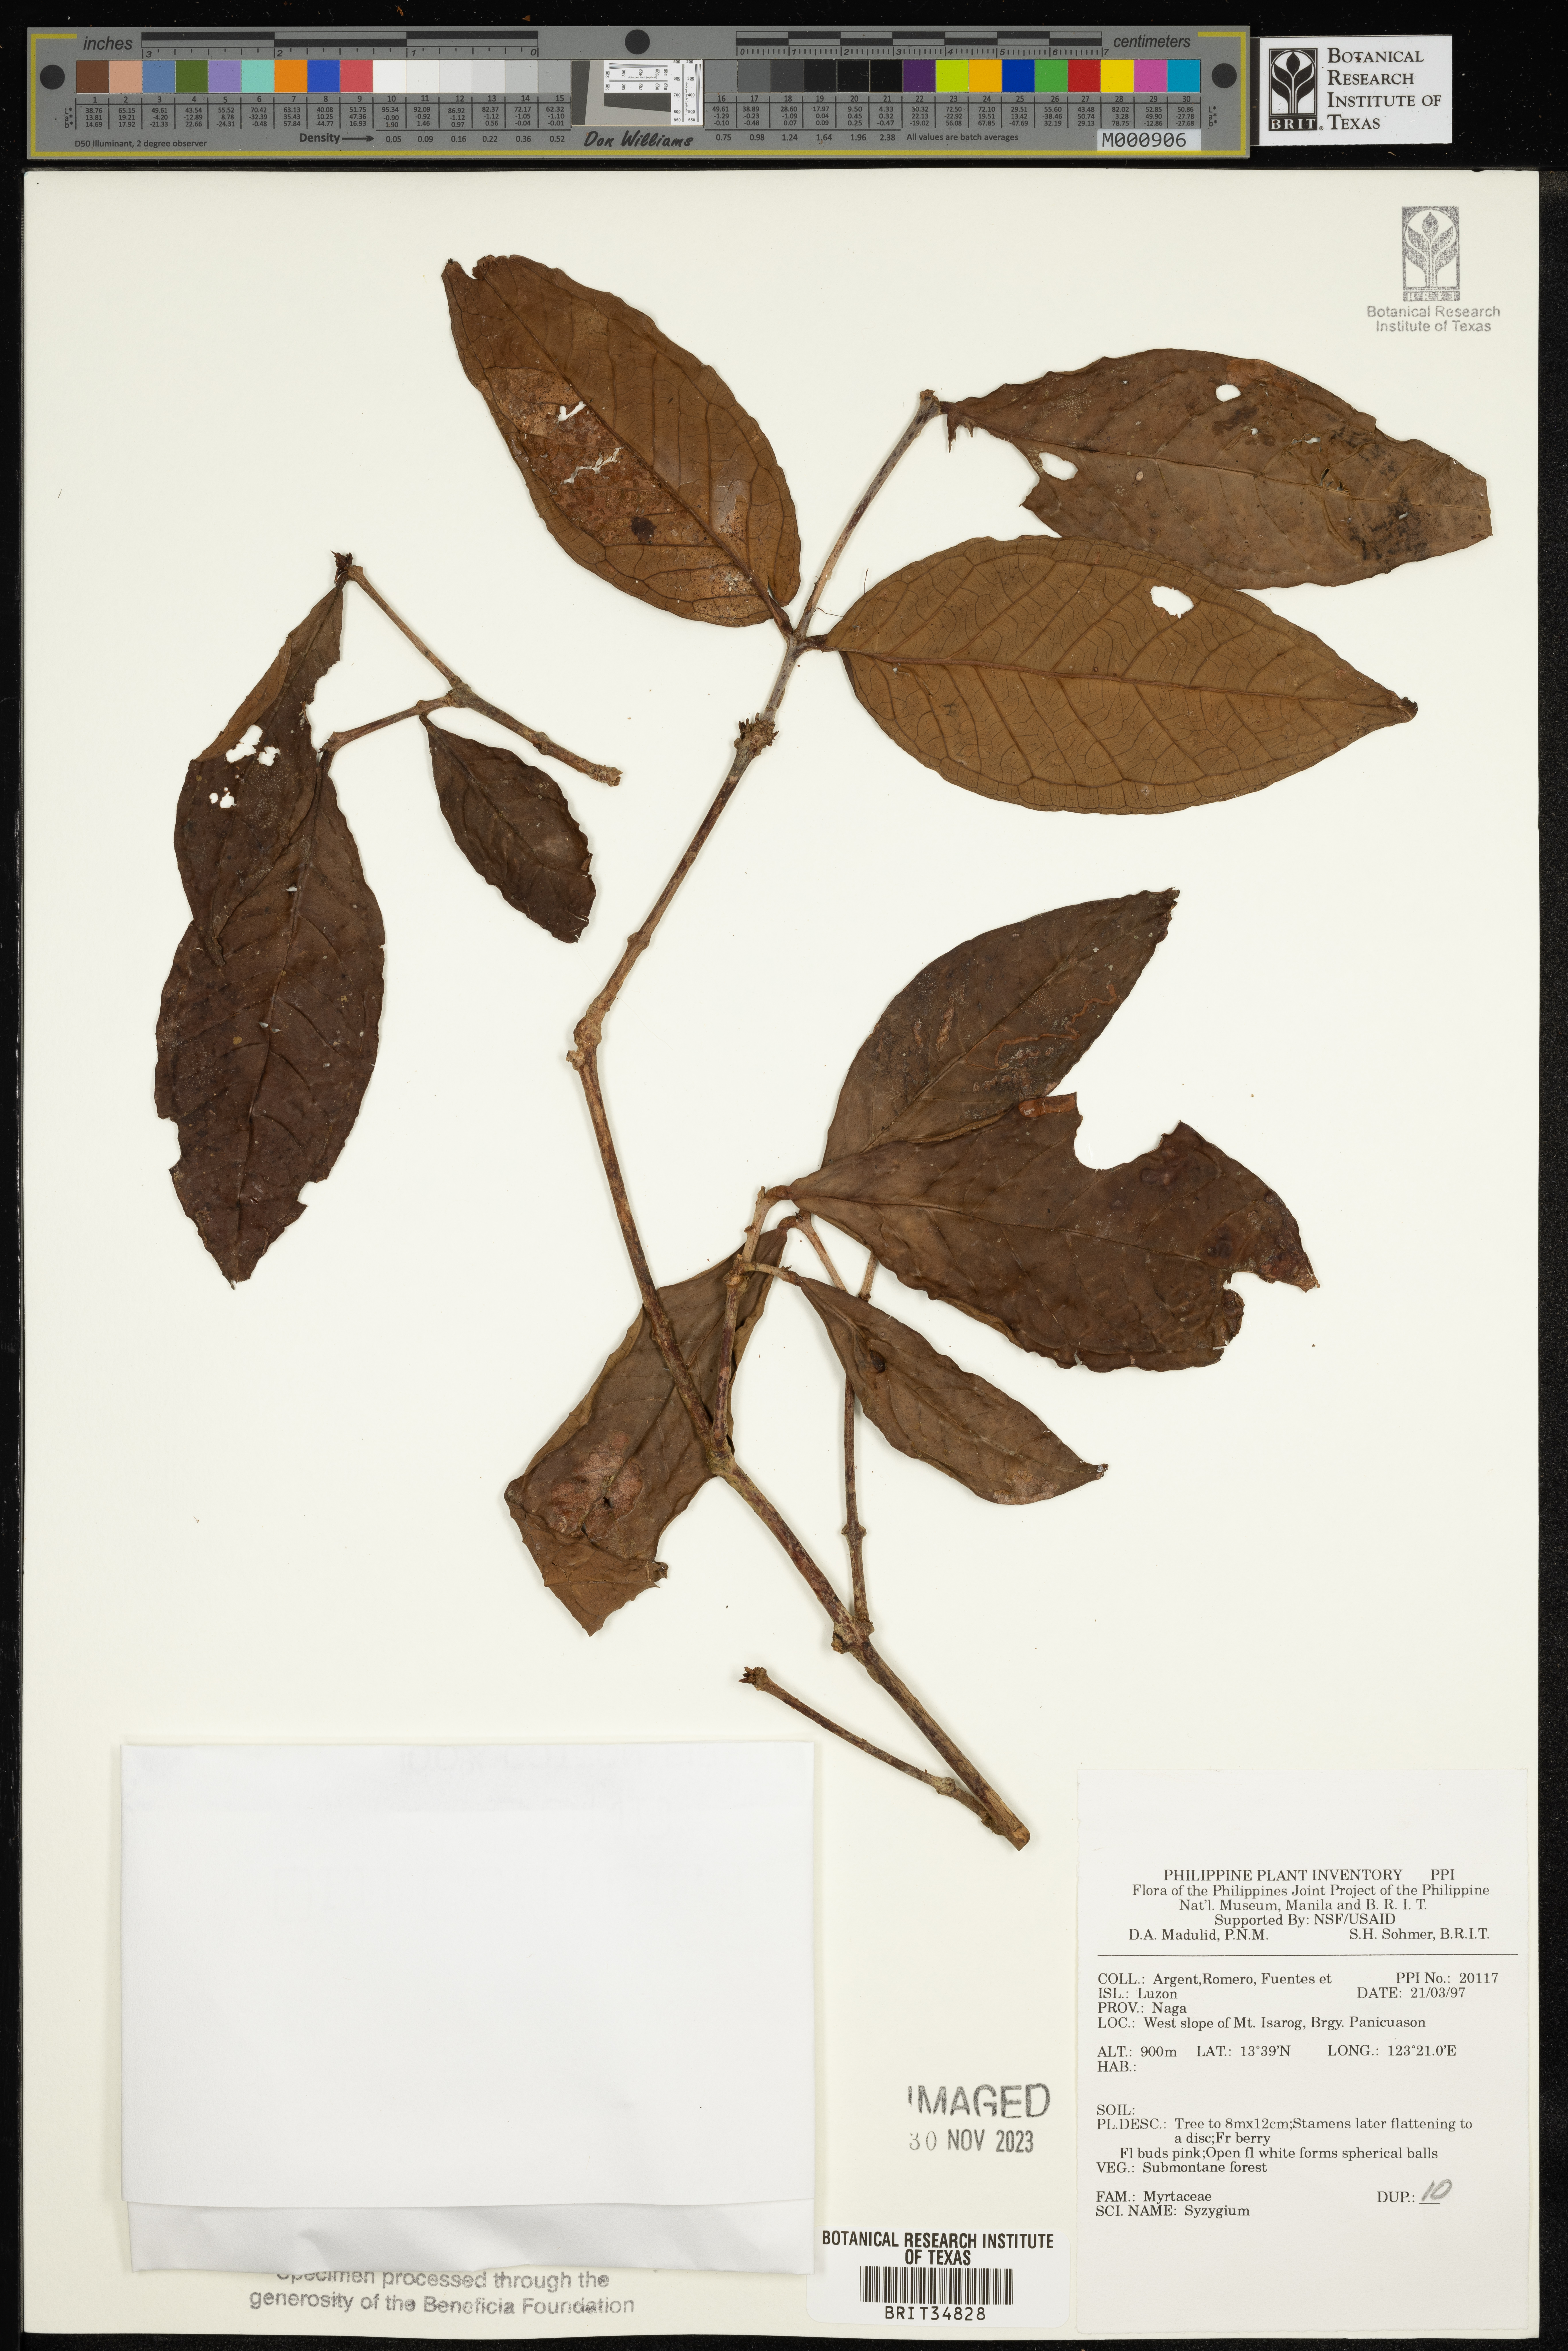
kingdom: Plantae
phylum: Tracheophyta
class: Magnoliopsida
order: Myrtales
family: Myrtaceae
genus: Syzygium
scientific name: Syzygium
